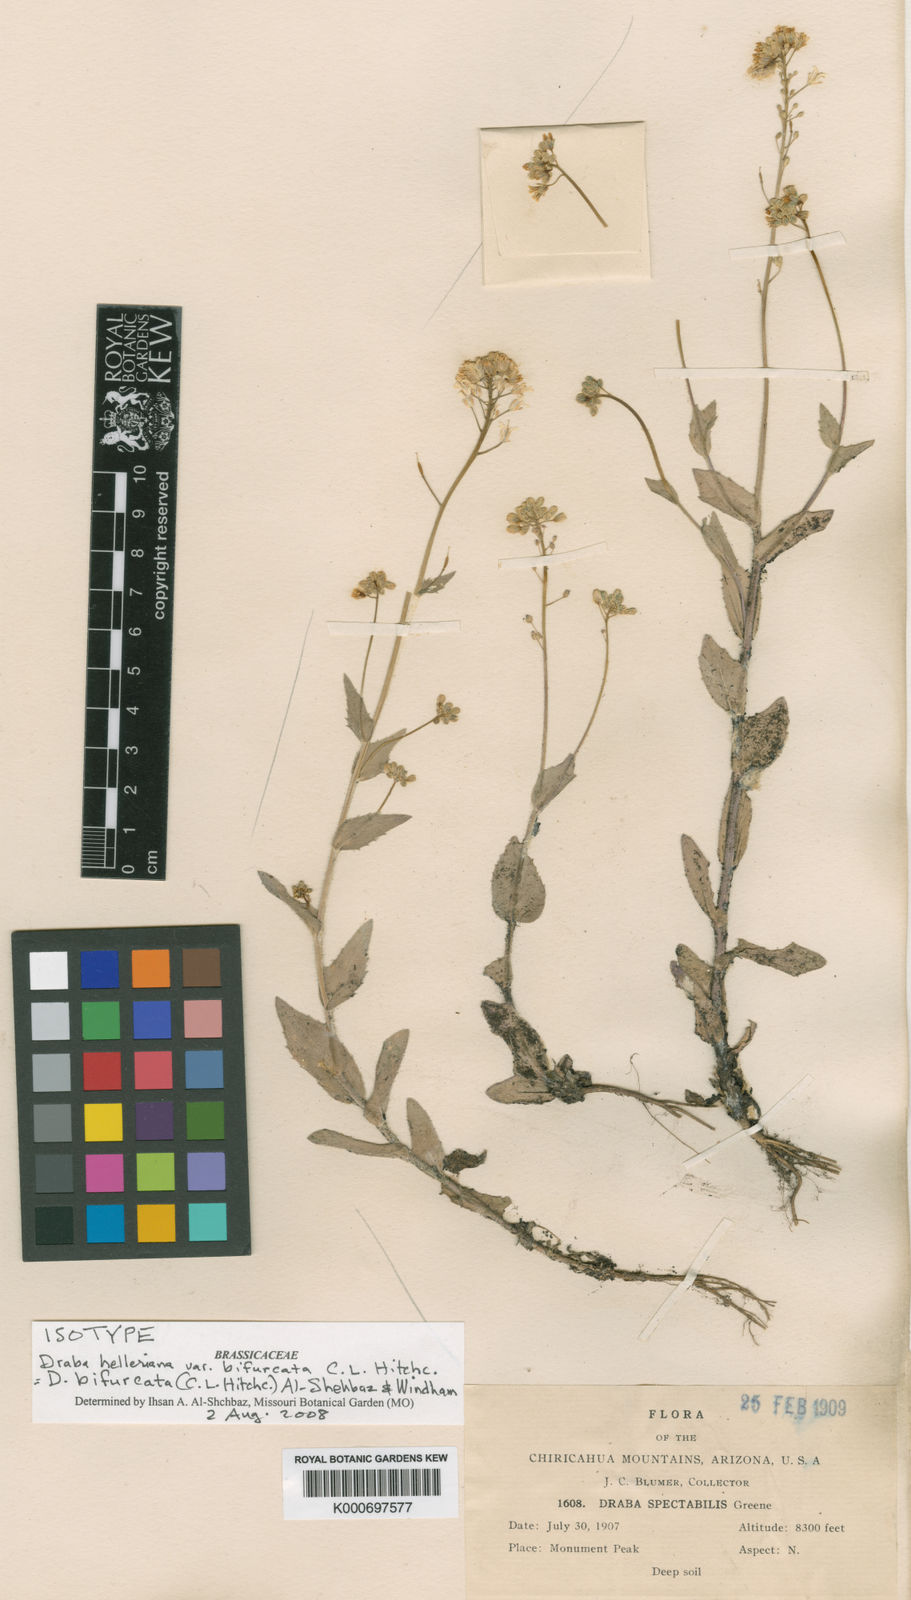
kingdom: Plantae
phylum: Tracheophyta
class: Magnoliopsida
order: Brassicales
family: Brassicaceae
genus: Draba
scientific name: Draba bifurcata
